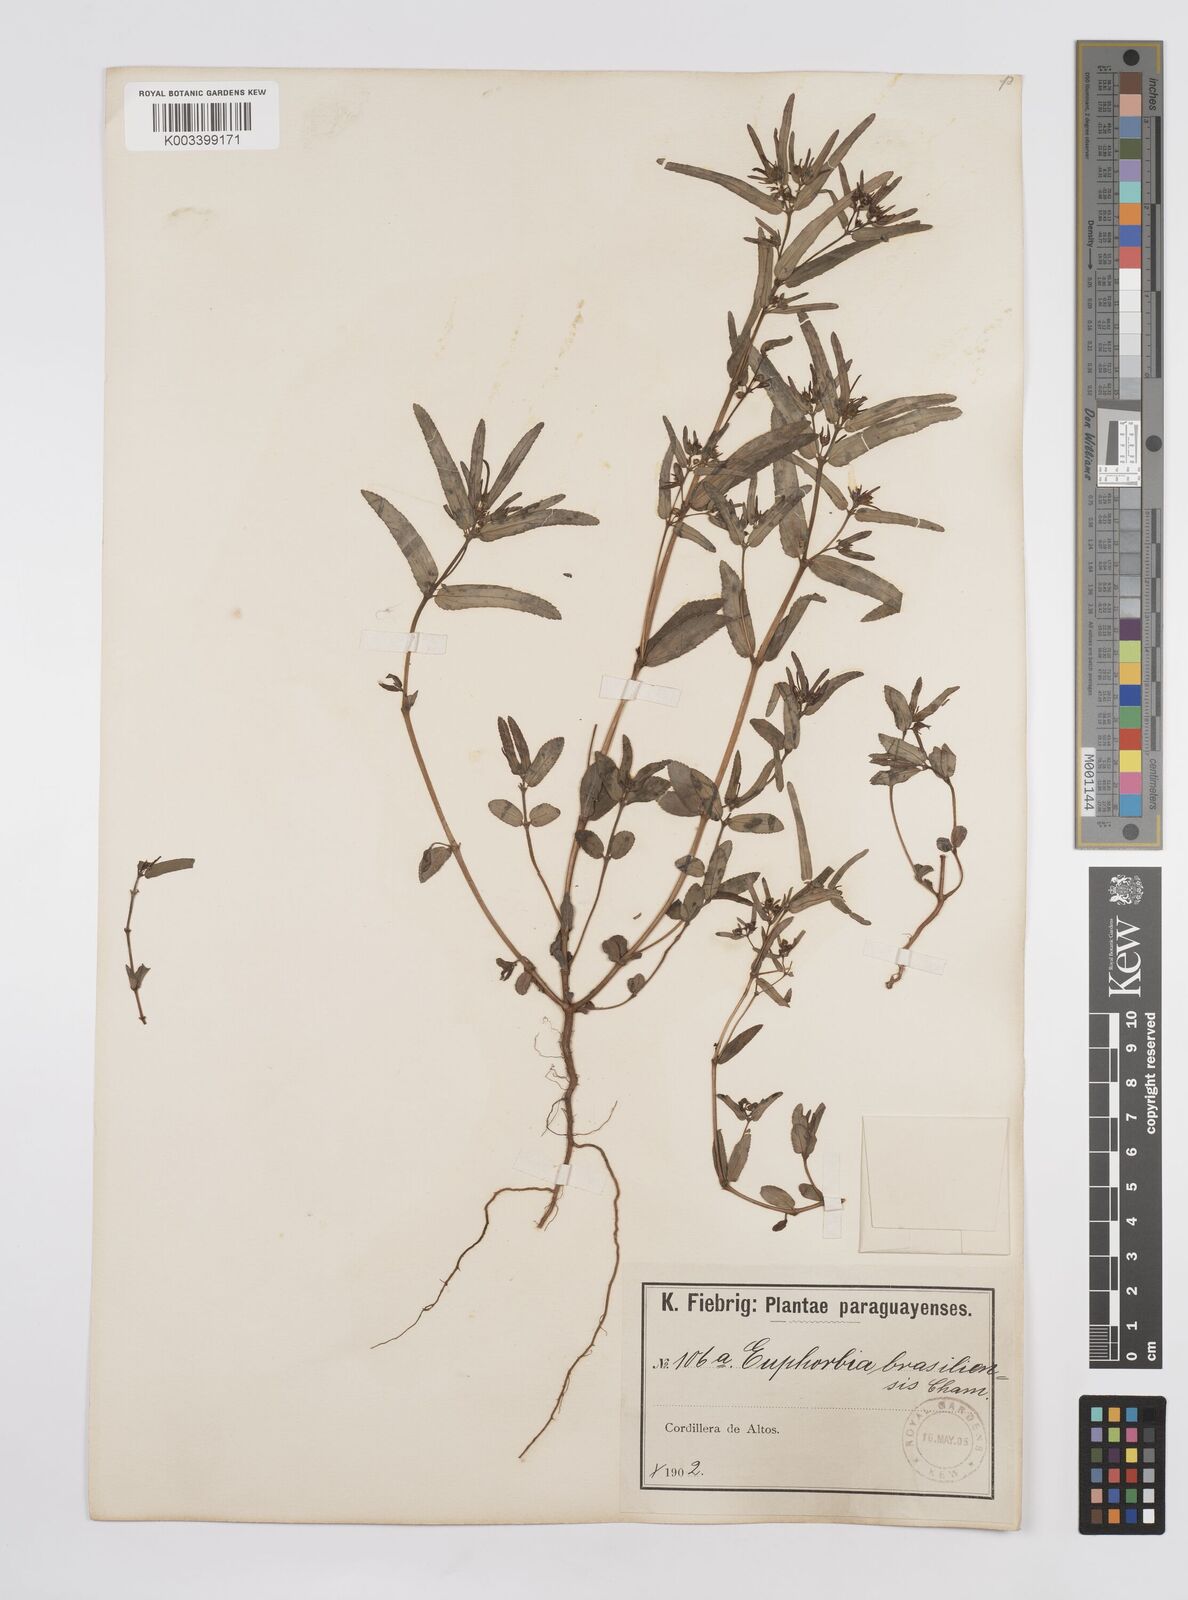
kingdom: Plantae
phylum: Tracheophyta
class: Magnoliopsida
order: Malpighiales
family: Euphorbiaceae
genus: Euphorbia
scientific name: Euphorbia hyssopifolia
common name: Hyssopleaf sandmat
